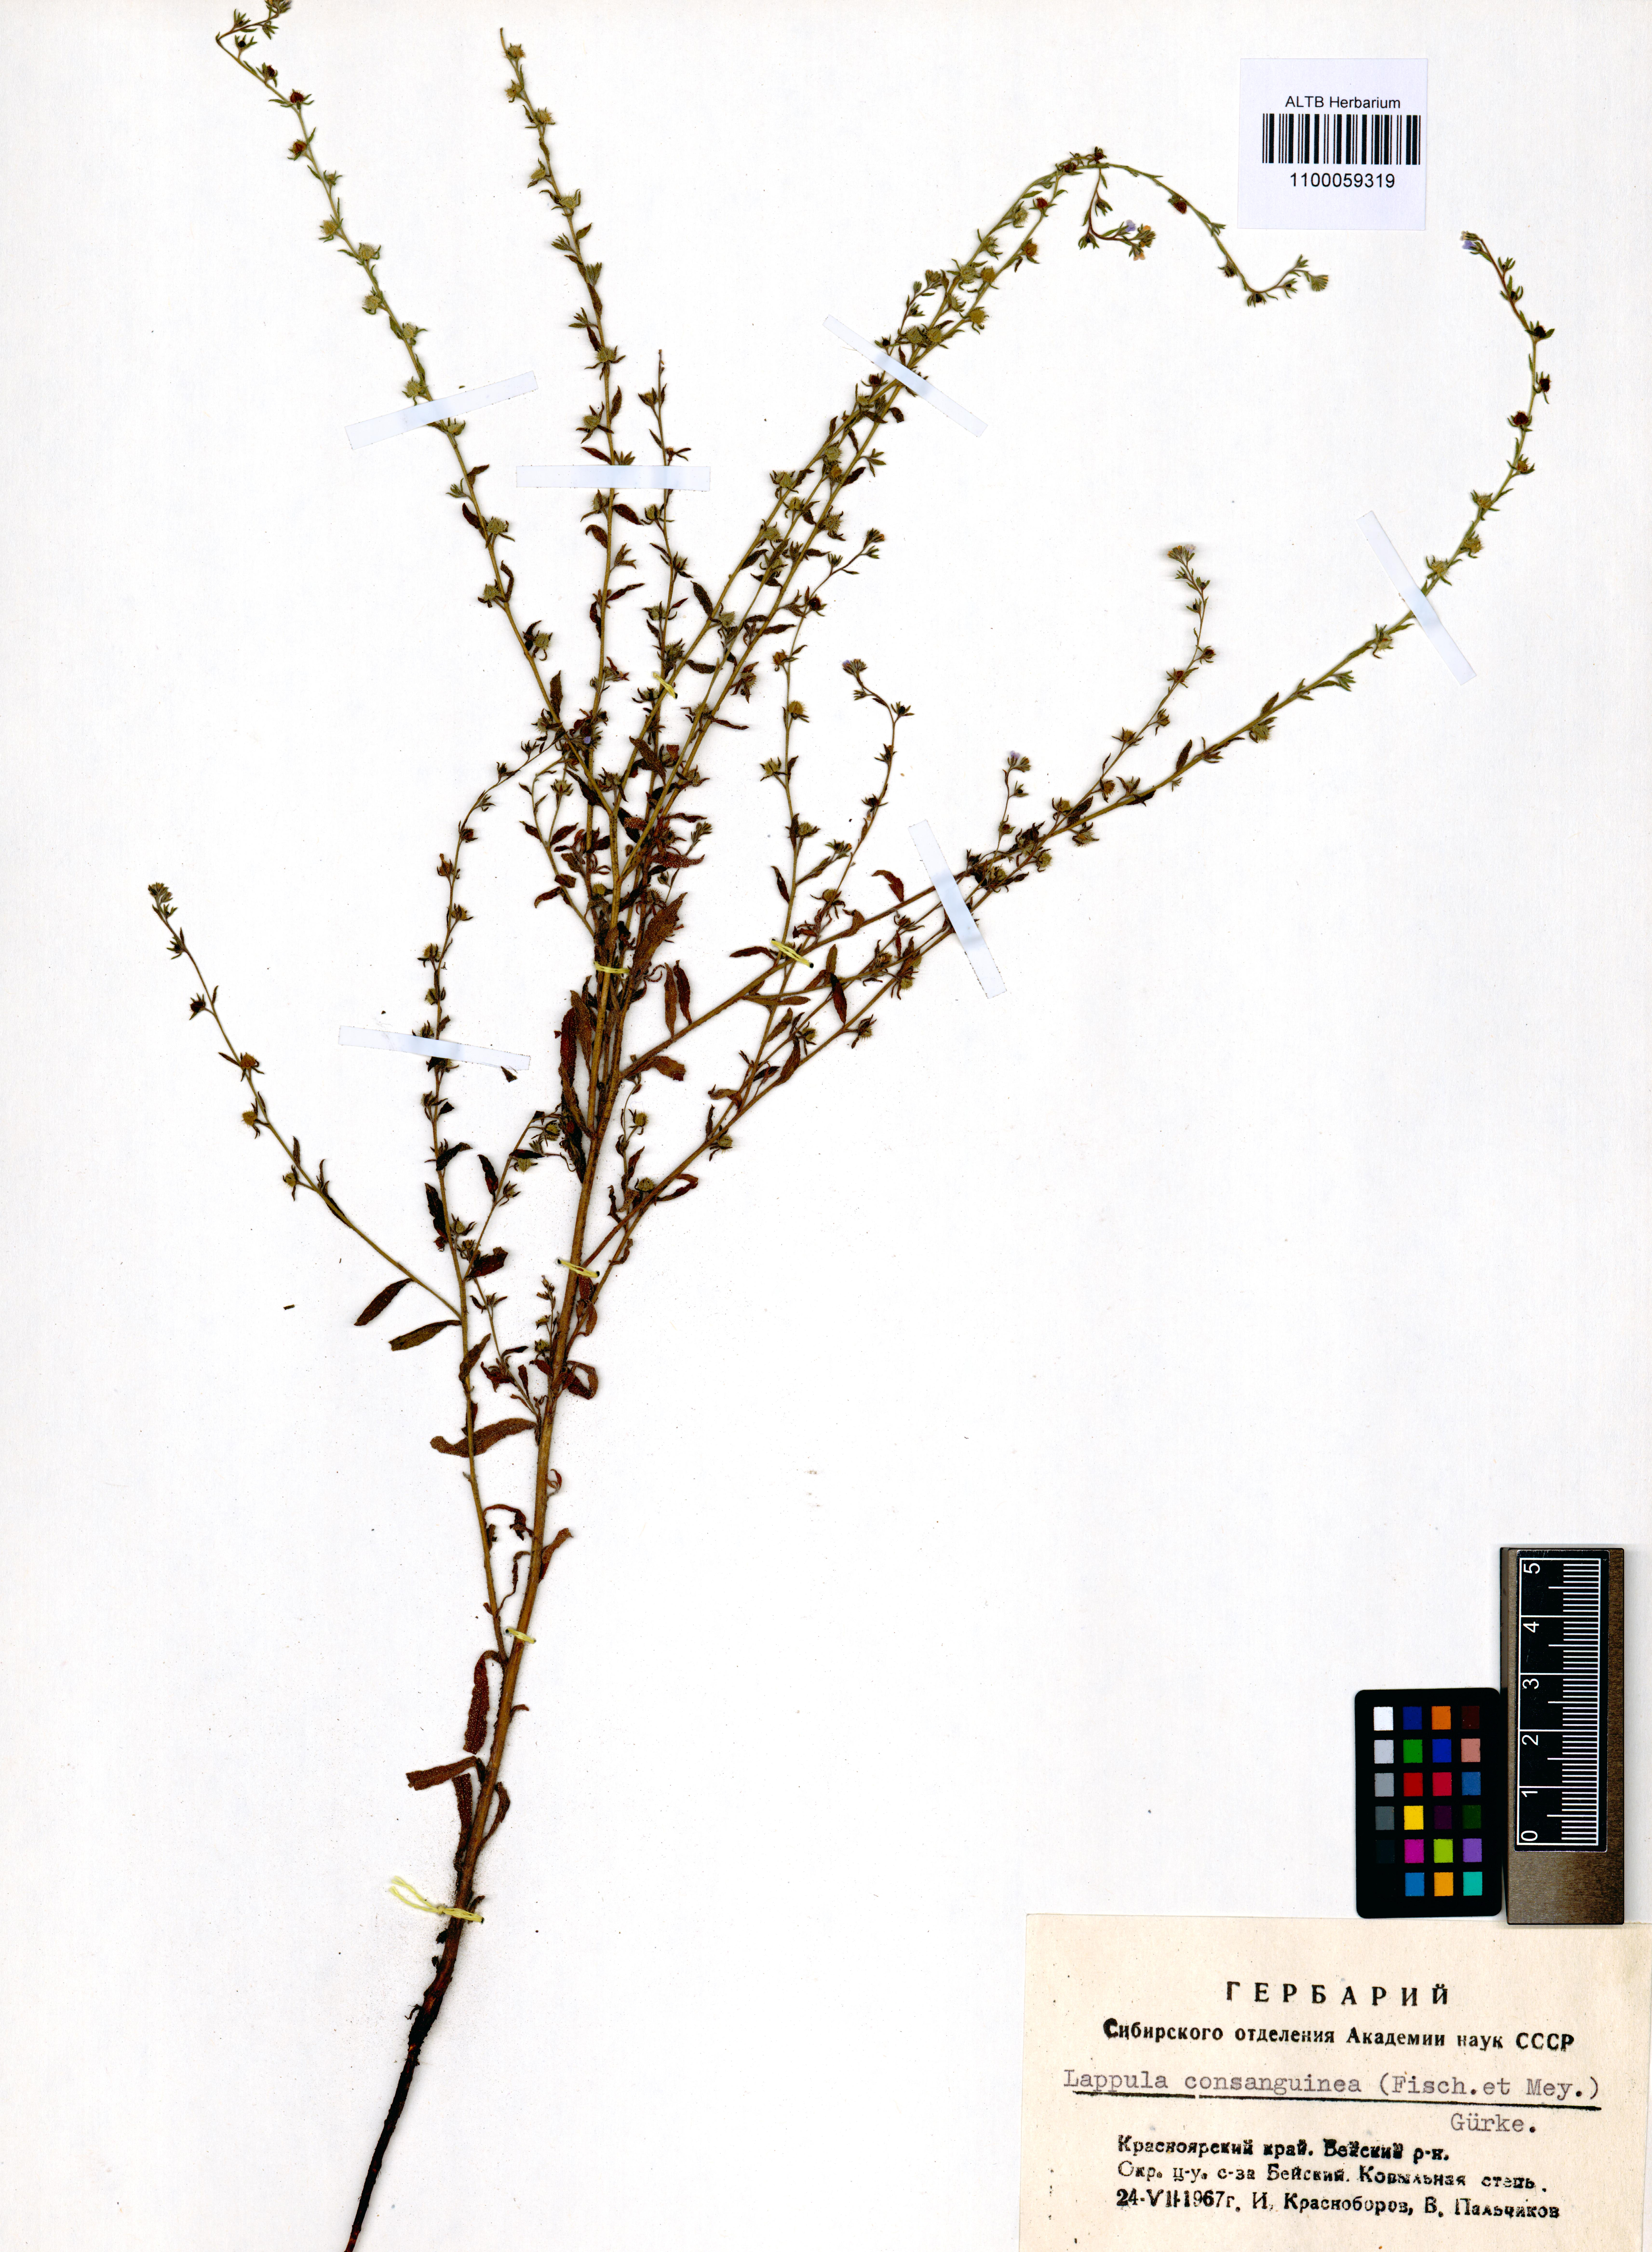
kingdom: Plantae
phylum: Tracheophyta
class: Magnoliopsida
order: Boraginales
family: Boraginaceae
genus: Lappula
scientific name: Lappula squarrosa
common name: European stickseed
